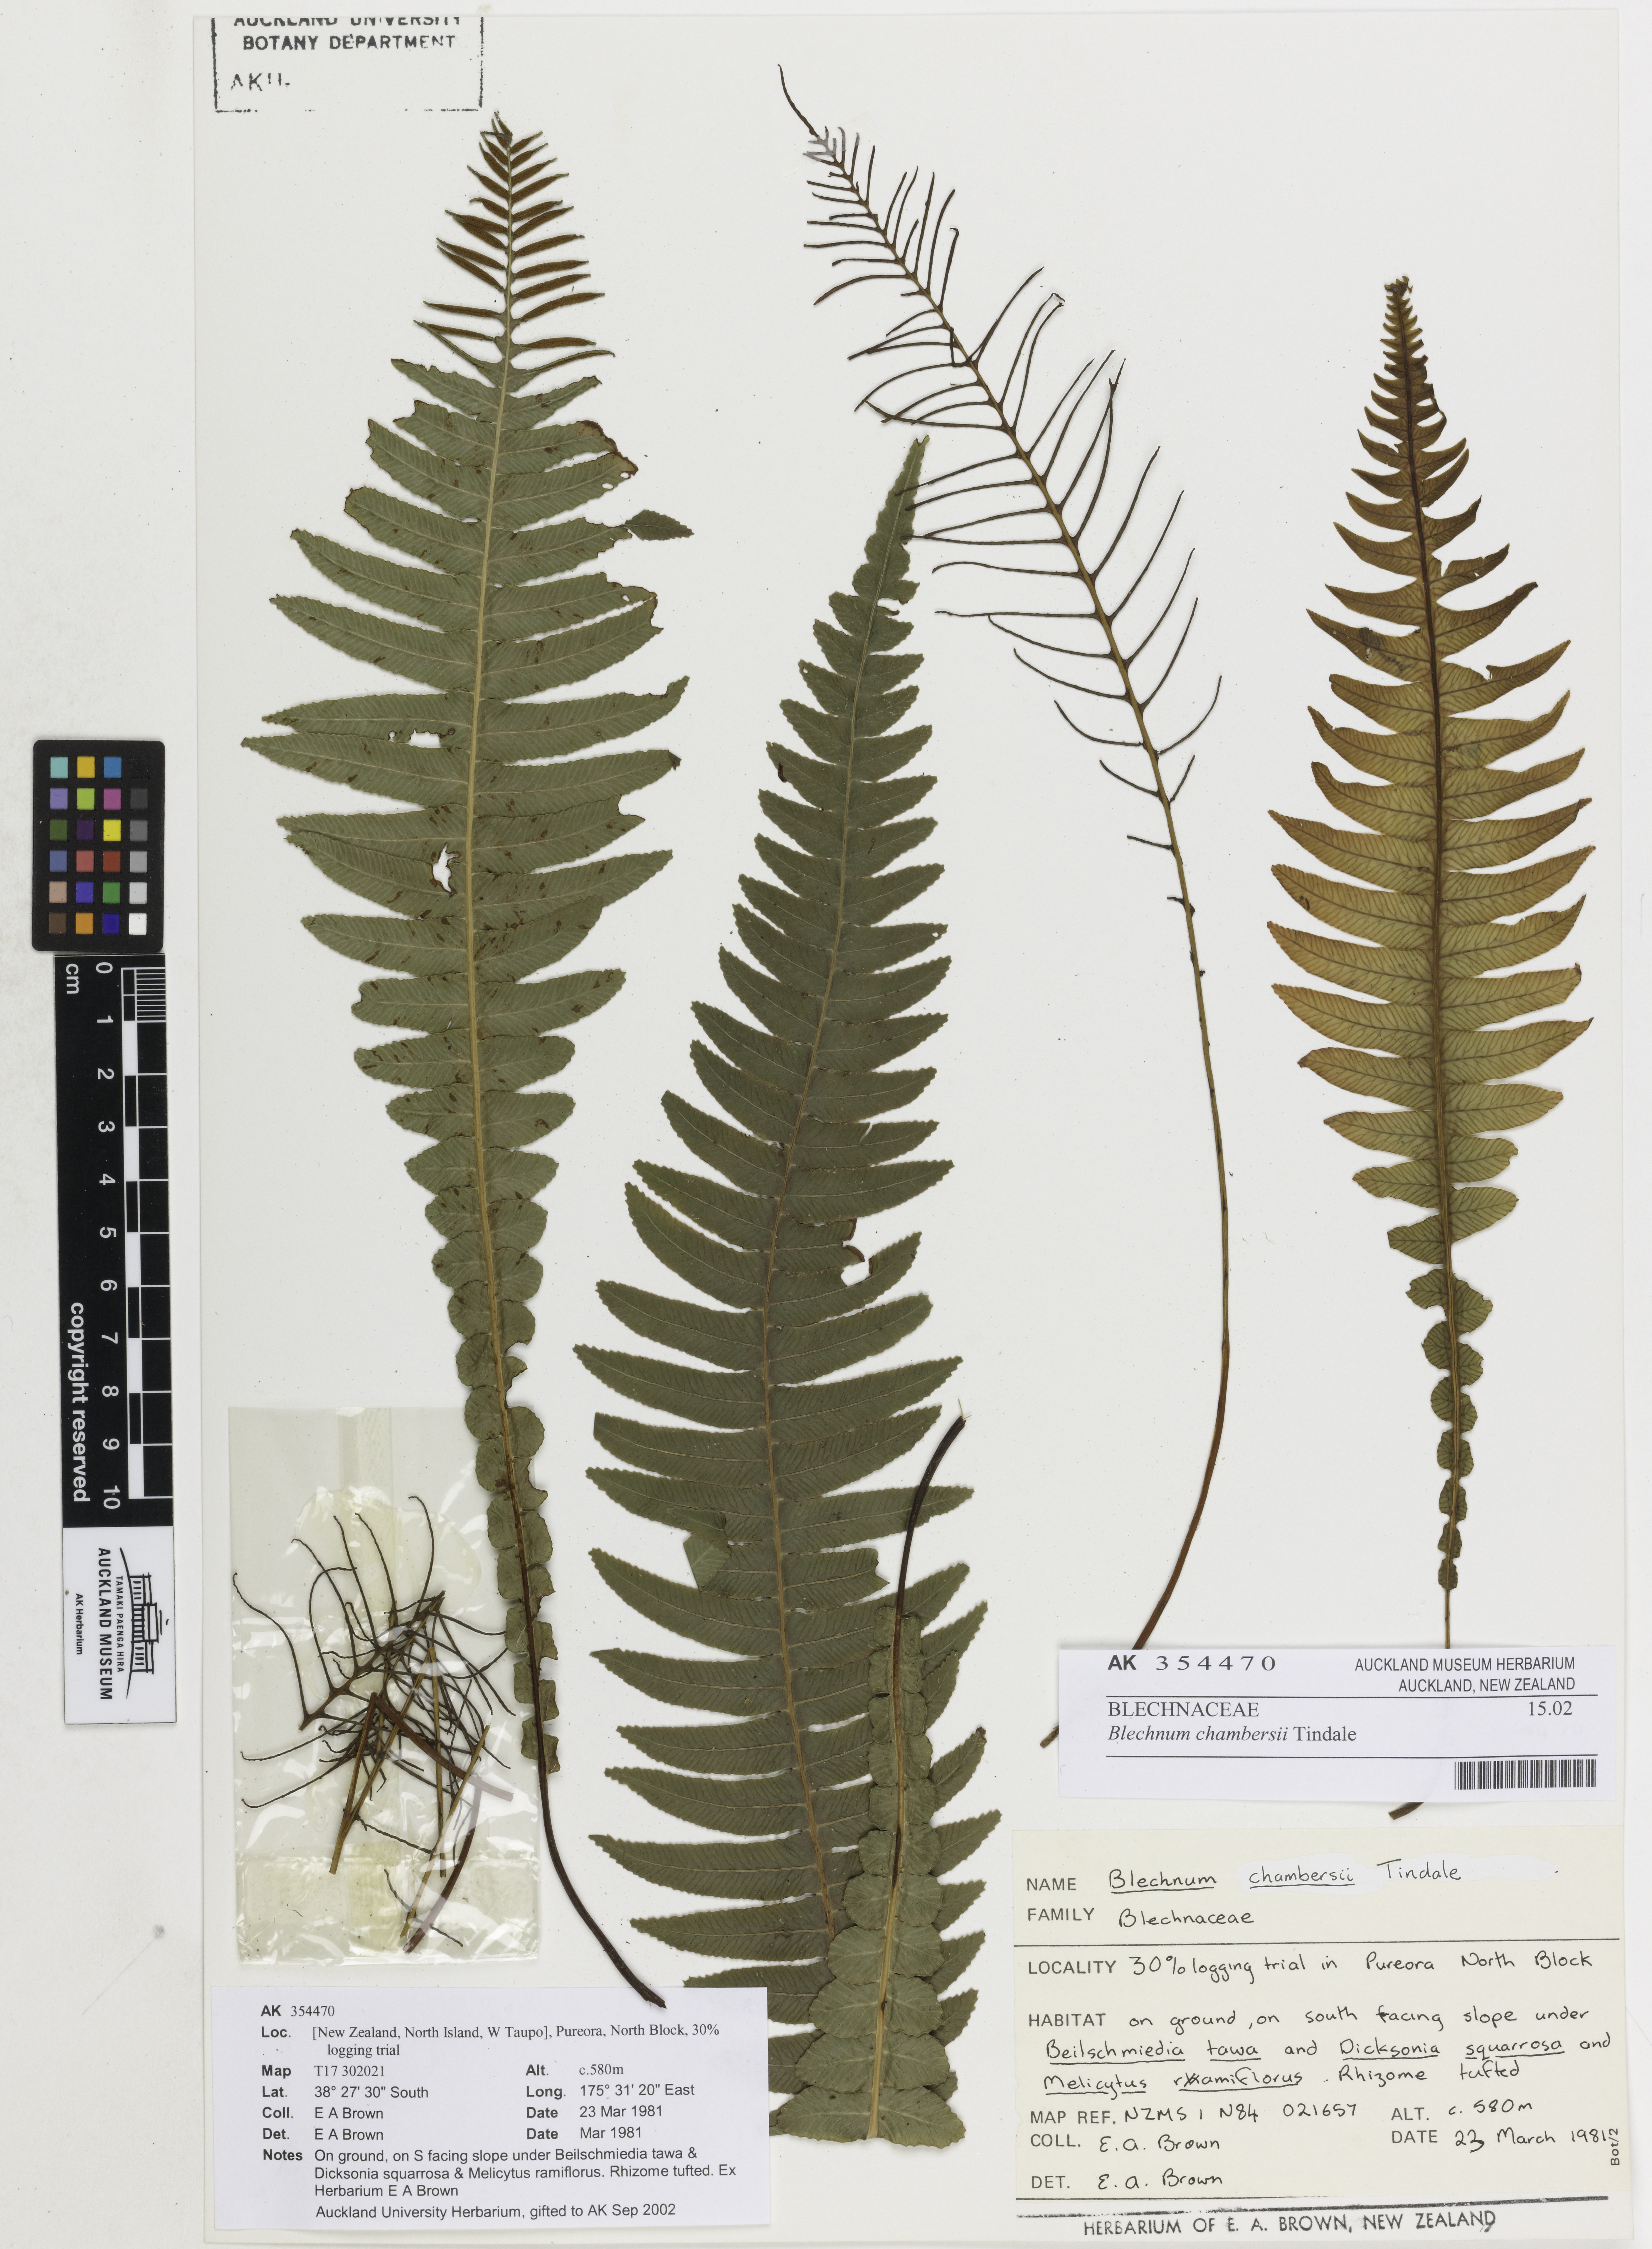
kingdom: Plantae
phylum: Tracheophyta
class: Polypodiopsida
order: Polypodiales
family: Blechnaceae
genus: Austroblechnum
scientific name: Austroblechnum lanceolatum
